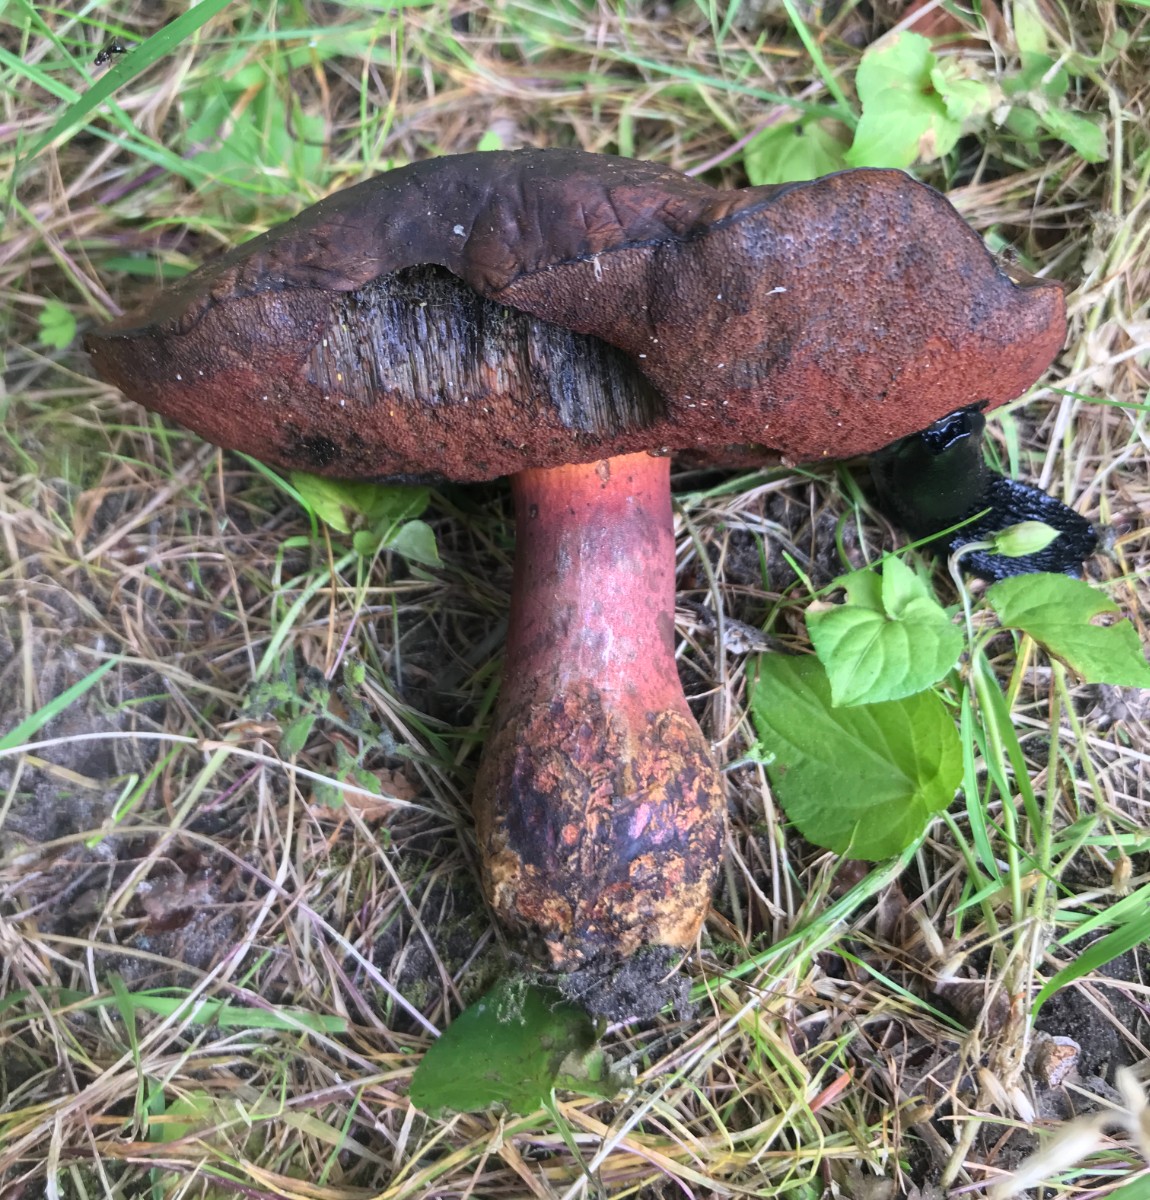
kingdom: Fungi
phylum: Basidiomycota
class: Agaricomycetes
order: Boletales
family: Boletaceae
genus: Neoboletus
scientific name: Neoboletus erythropus
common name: punktstokket indigorørhat
